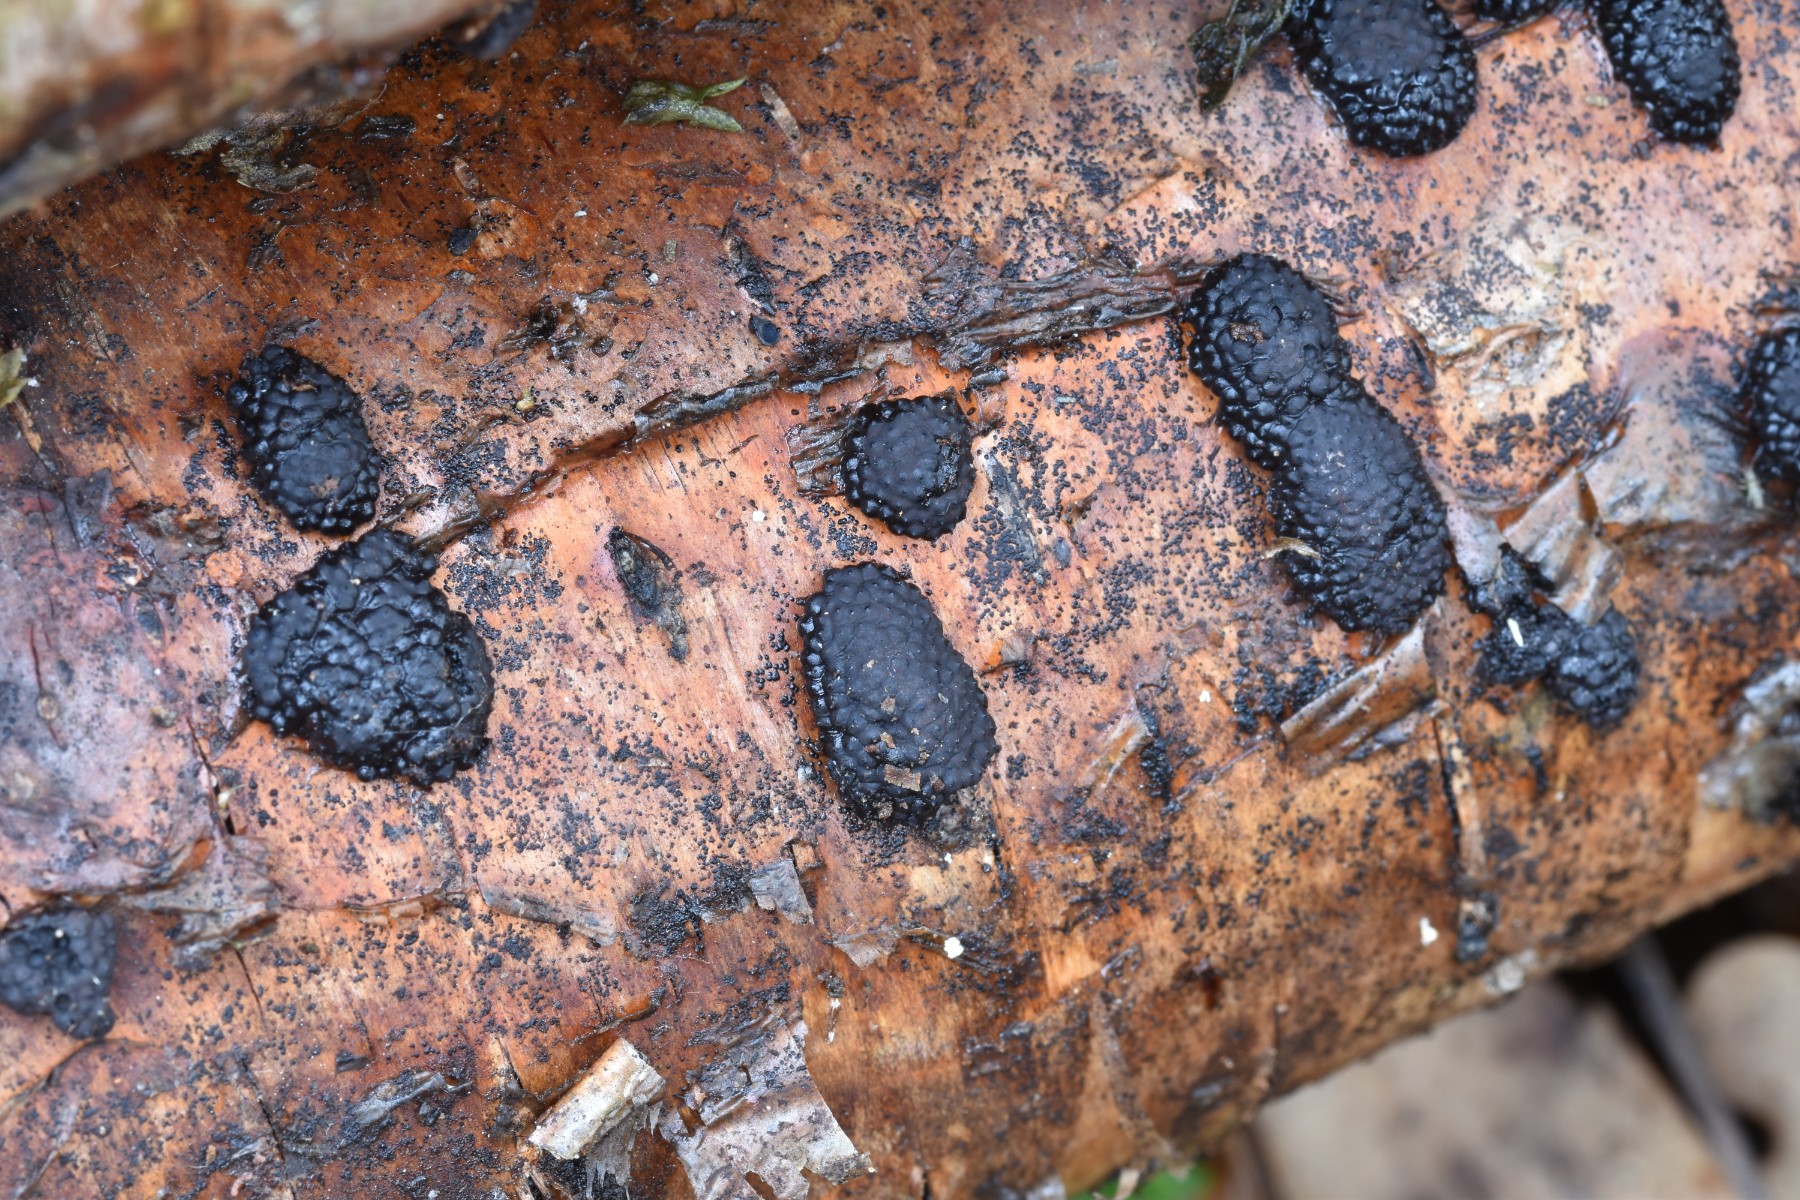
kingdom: Fungi
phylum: Ascomycota
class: Sordariomycetes
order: Xylariales
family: Hypoxylaceae
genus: Jackrogersella
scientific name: Jackrogersella multiformis
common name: foranderlig kulbær
